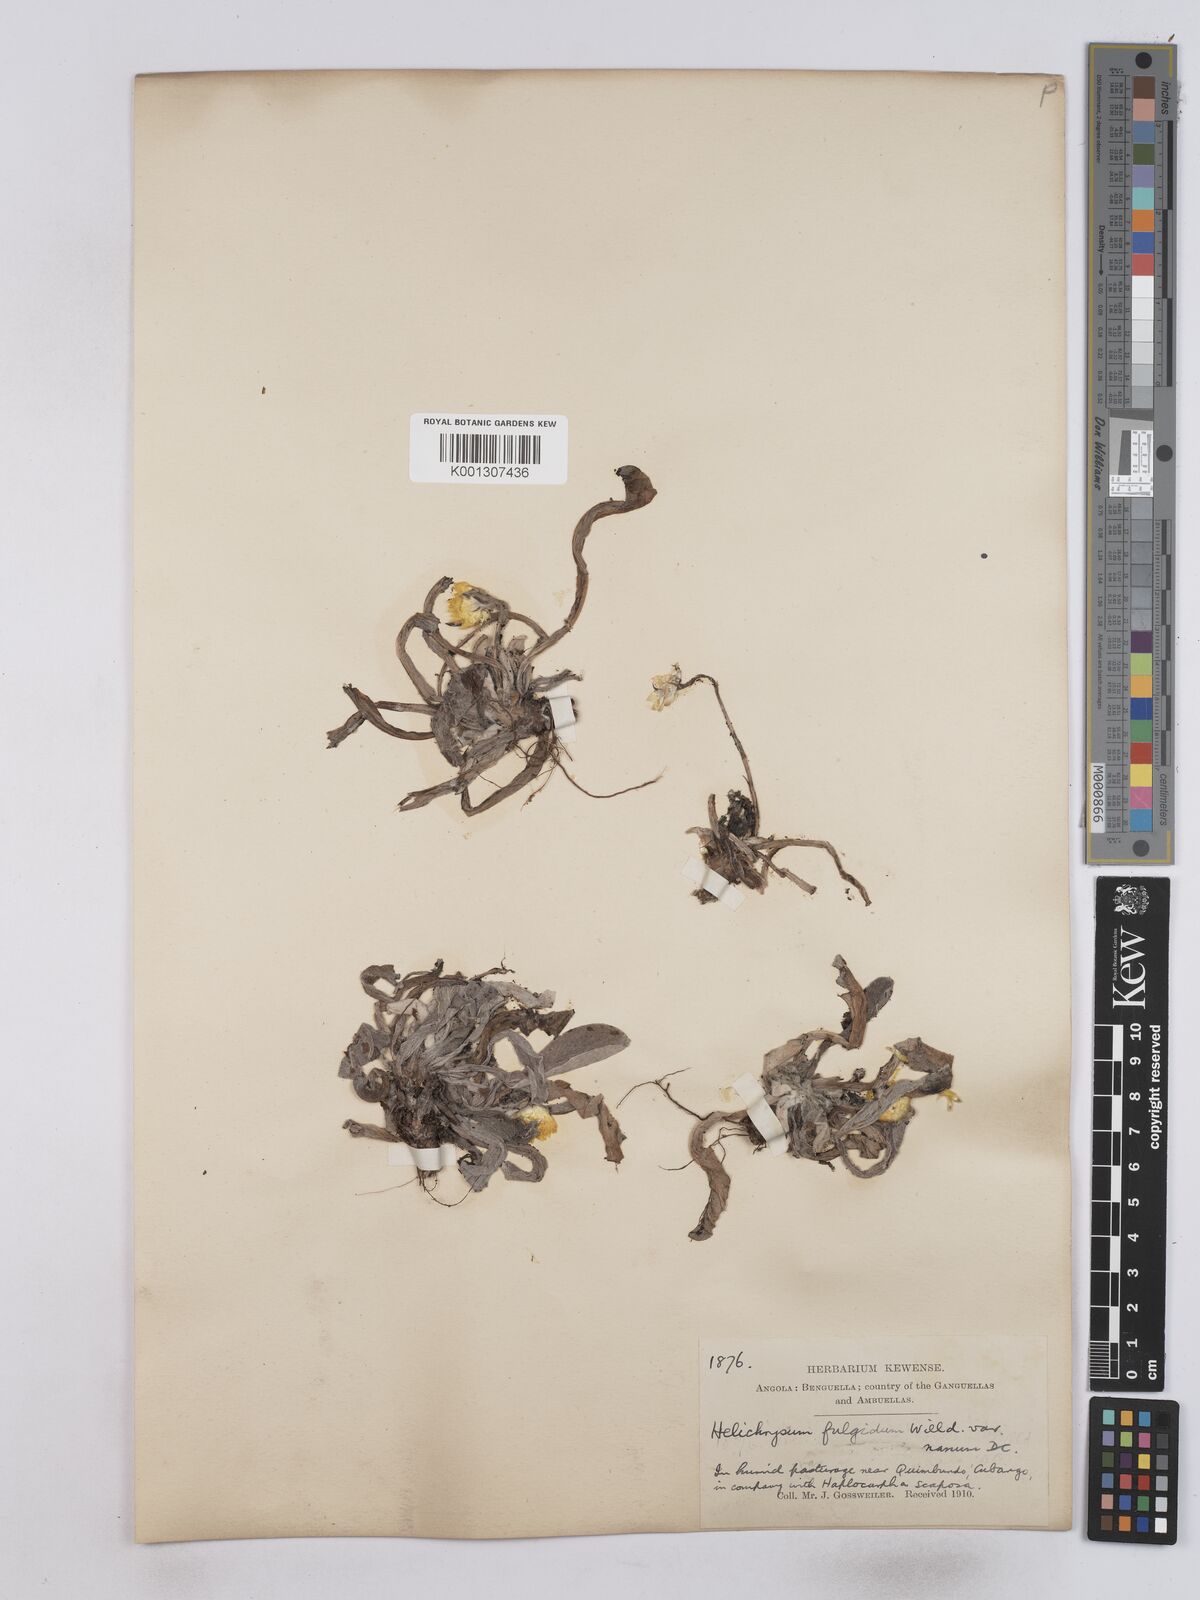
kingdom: Plantae
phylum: Tracheophyta
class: Magnoliopsida
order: Asterales
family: Asteraceae
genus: Helichrysum
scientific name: Helichrysum aureum
